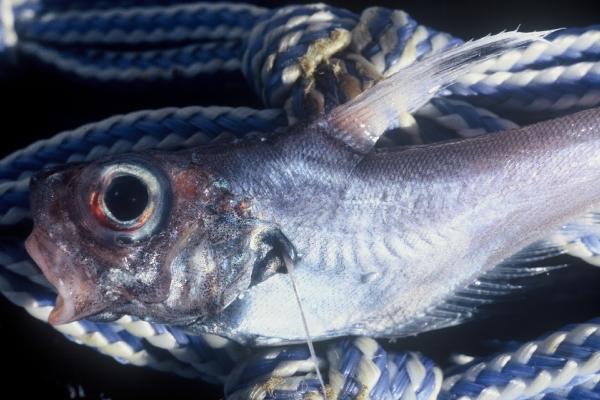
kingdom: Animalia
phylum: Chordata
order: Gadiformes
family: Macrouridae
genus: Lucigadus
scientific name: Lucigadus ori
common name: Bronze whiptail
